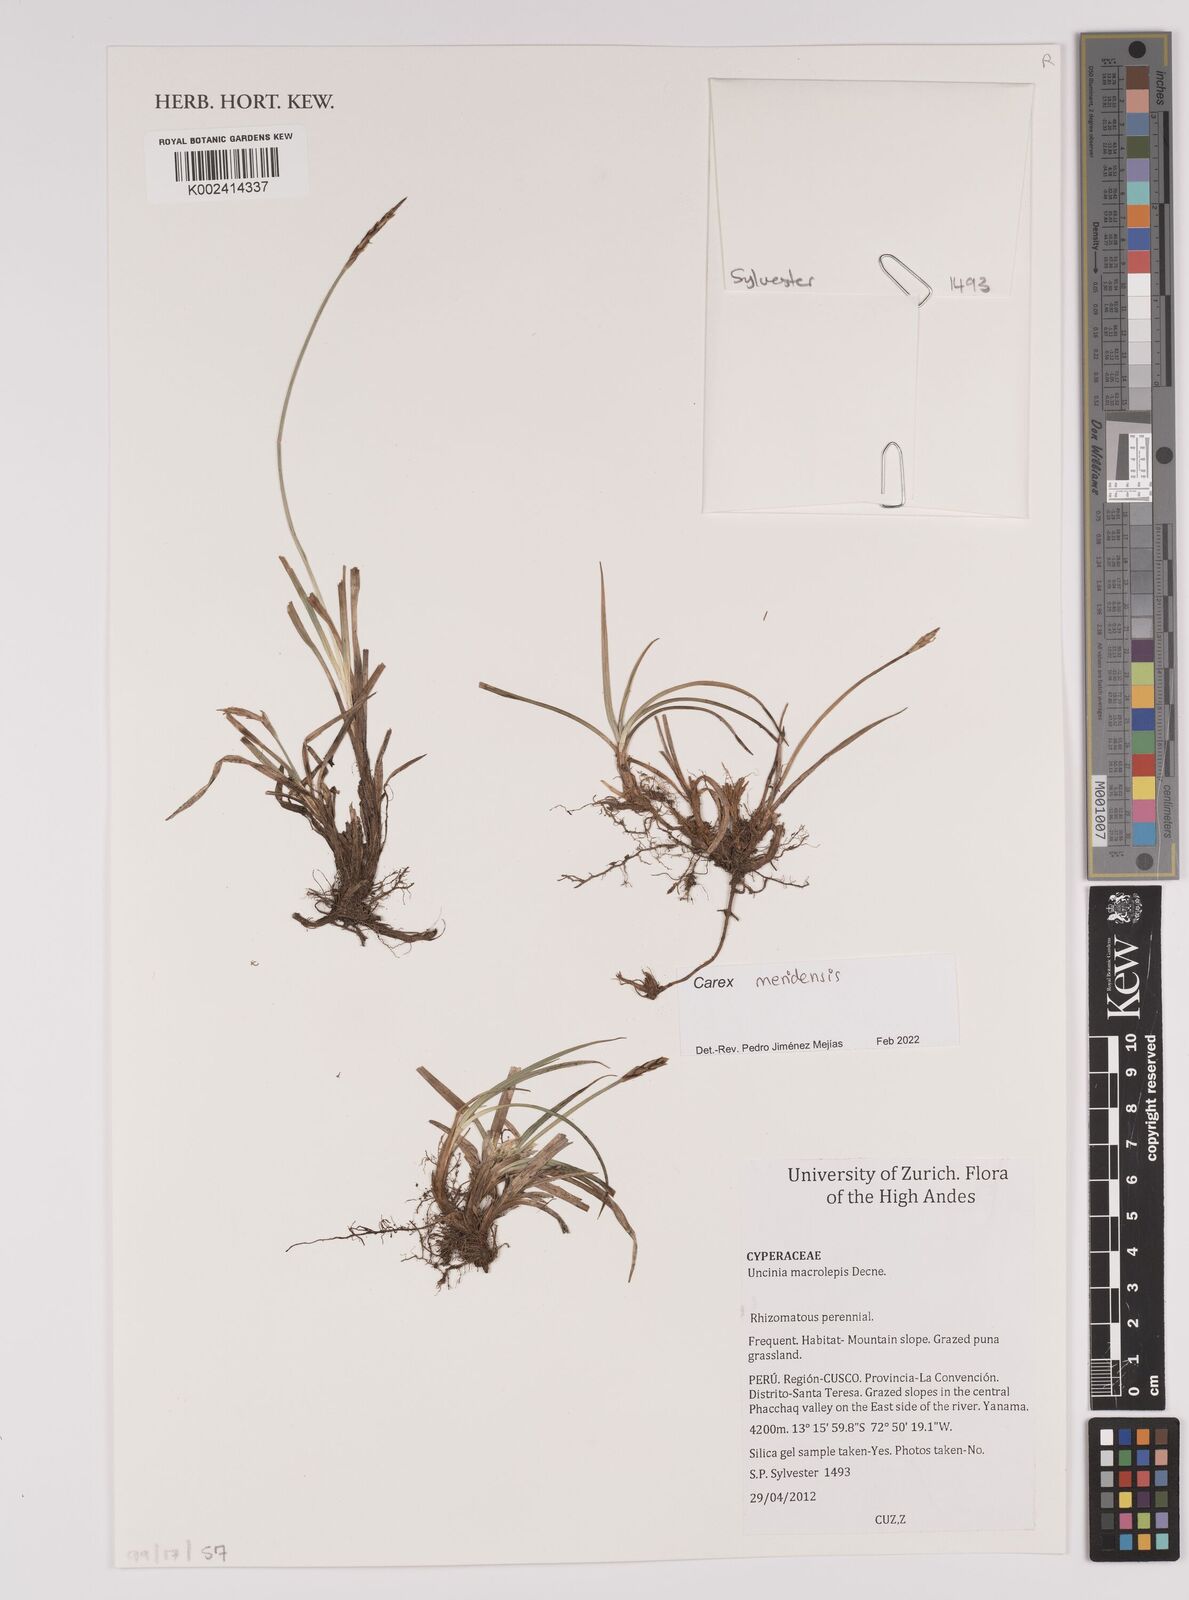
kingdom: Plantae
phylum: Tracheophyta
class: Liliopsida
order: Poales
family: Cyperaceae
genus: Carex
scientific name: Carex meridensis
